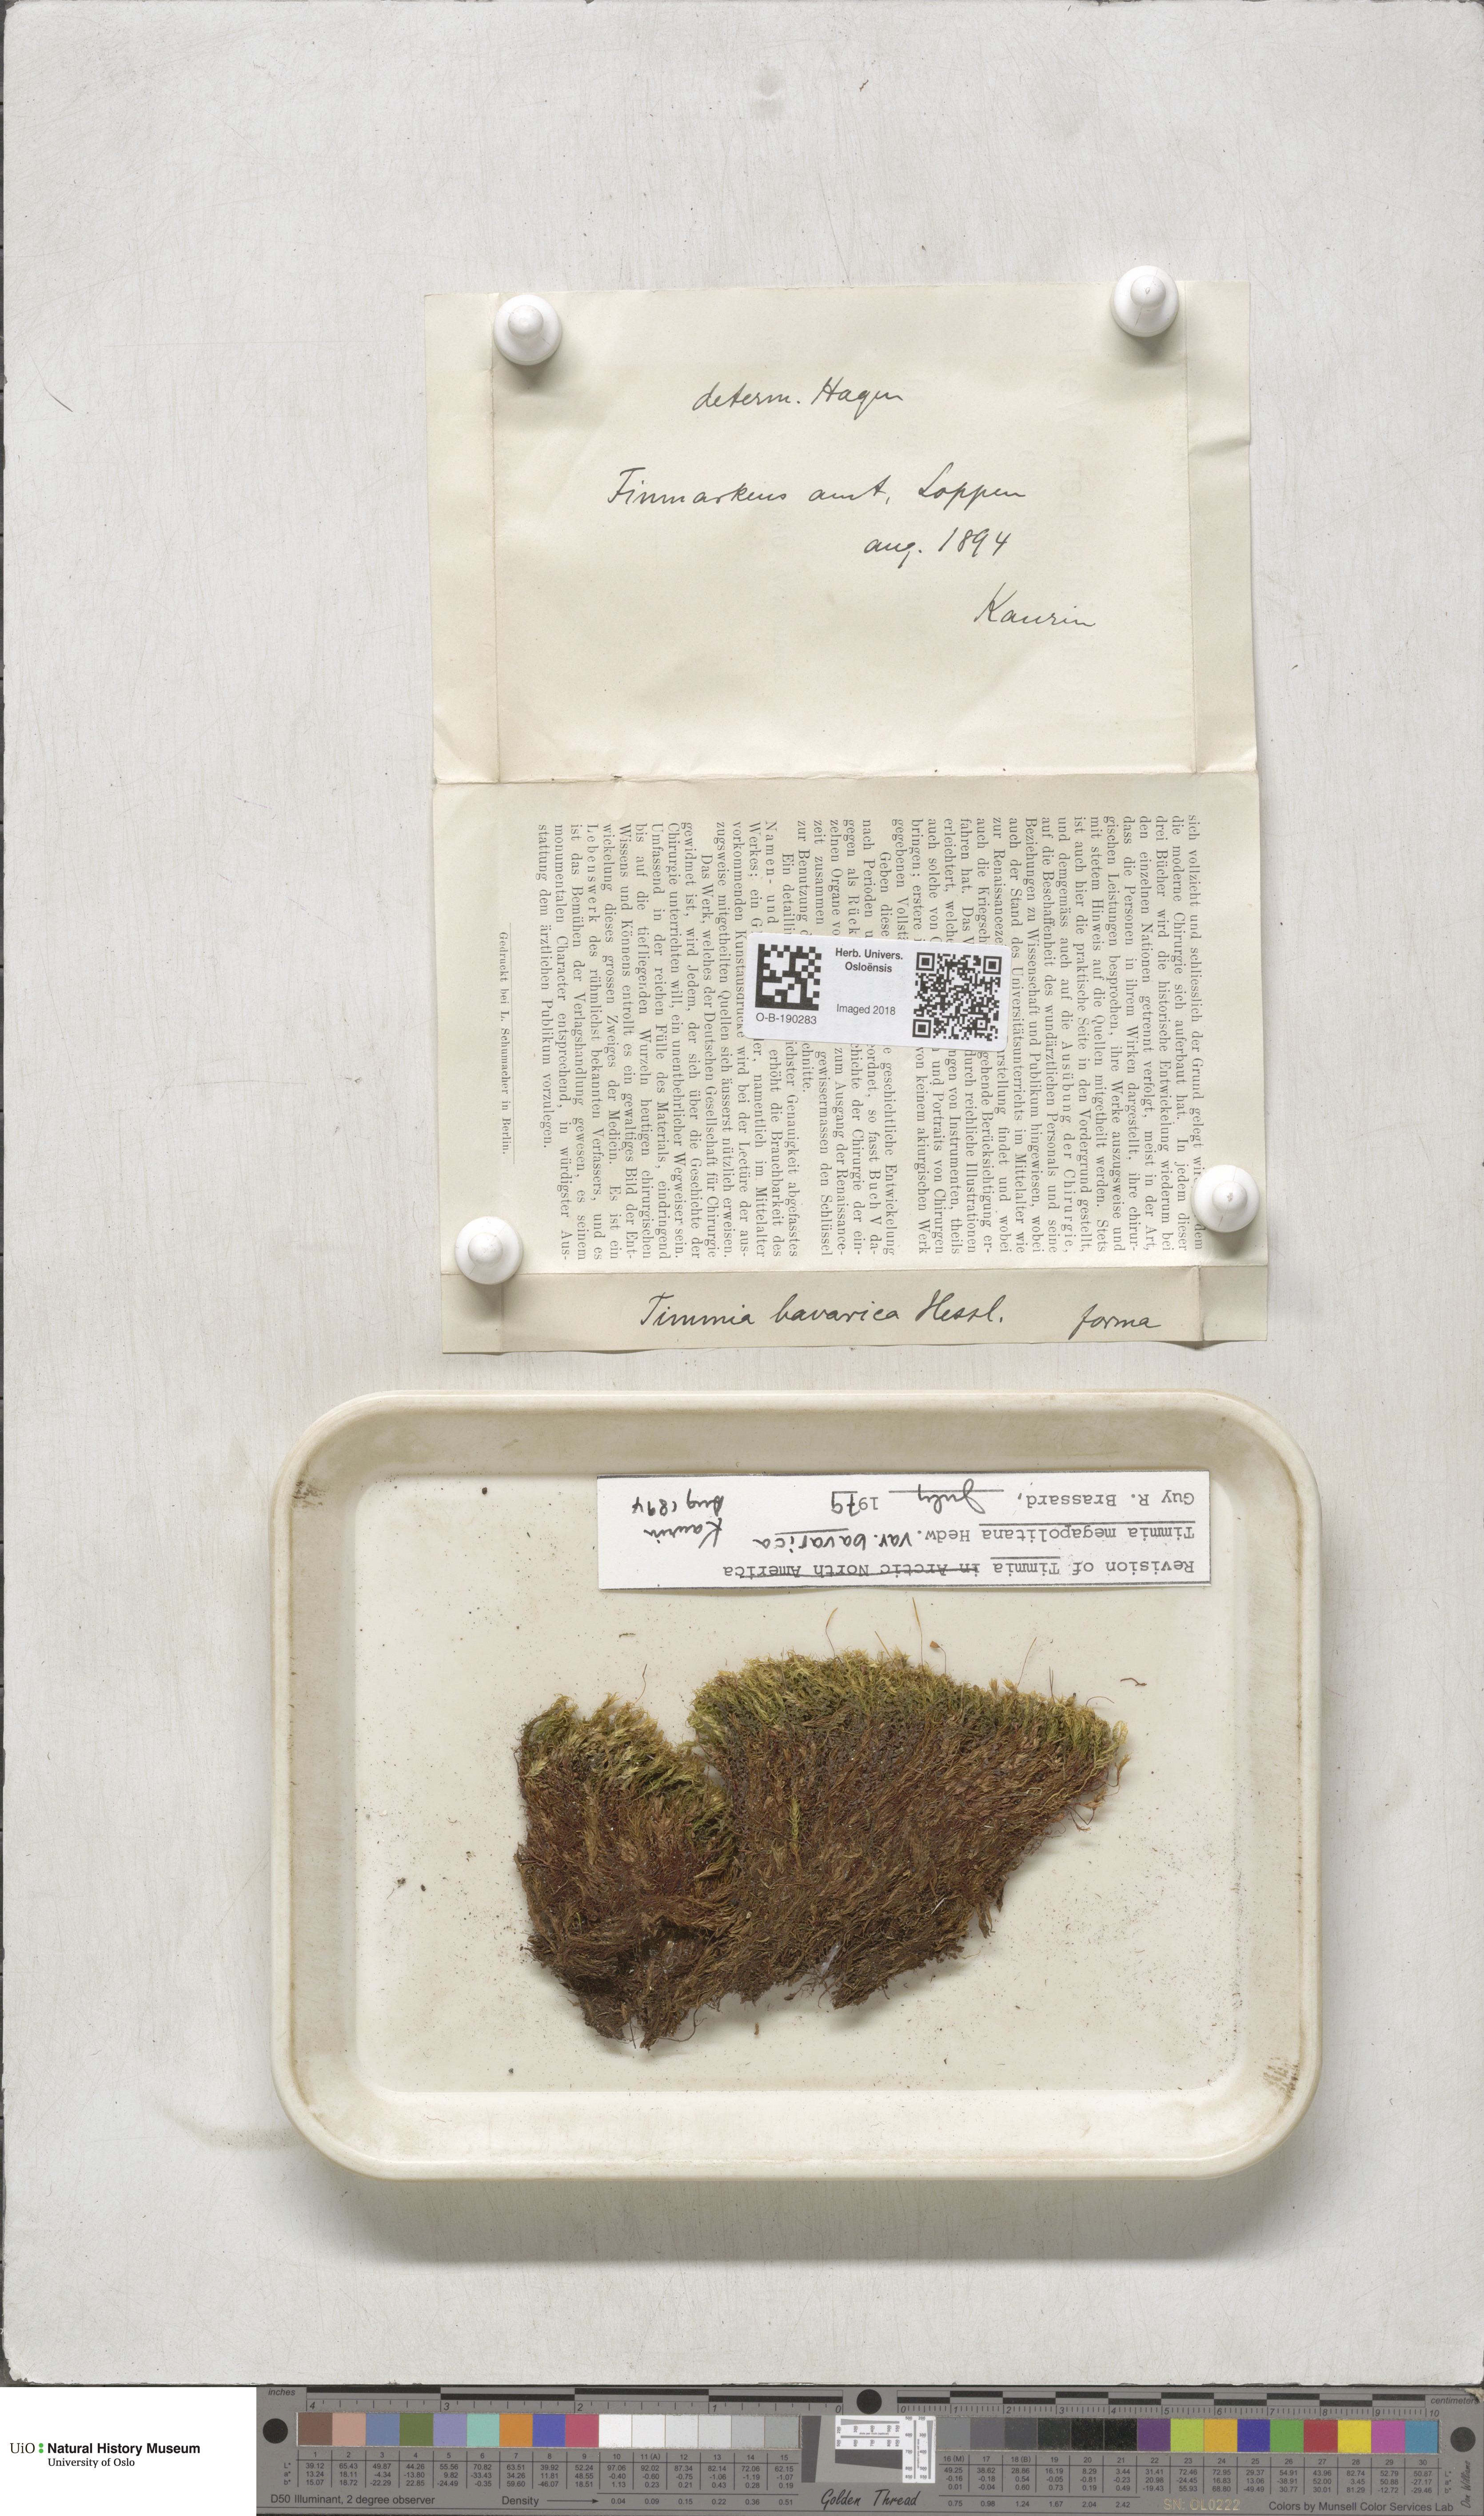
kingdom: Plantae
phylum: Bryophyta
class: Bryopsida
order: Timmiales
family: Timmiaceae
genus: Timmia
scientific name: Timmia bavarica
